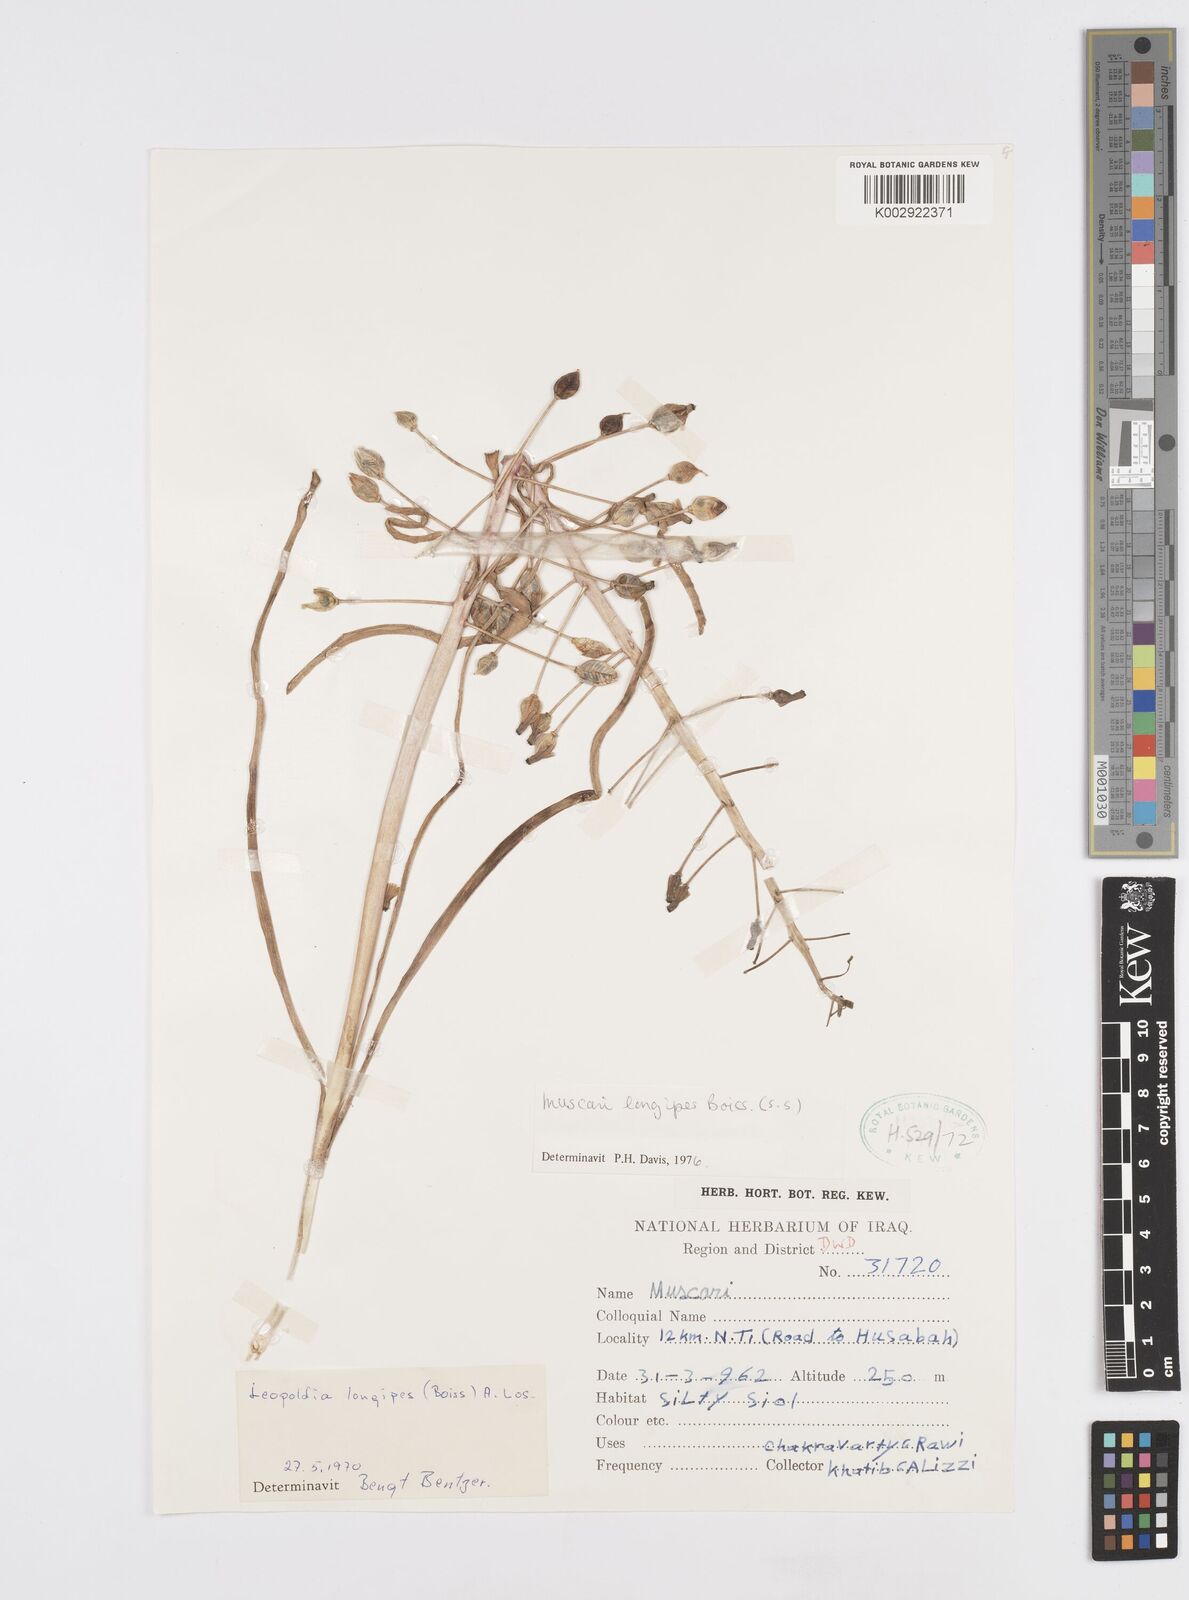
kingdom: Plantae
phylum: Tracheophyta
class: Liliopsida
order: Asparagales
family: Asparagaceae
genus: Muscari
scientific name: Muscari longipes
